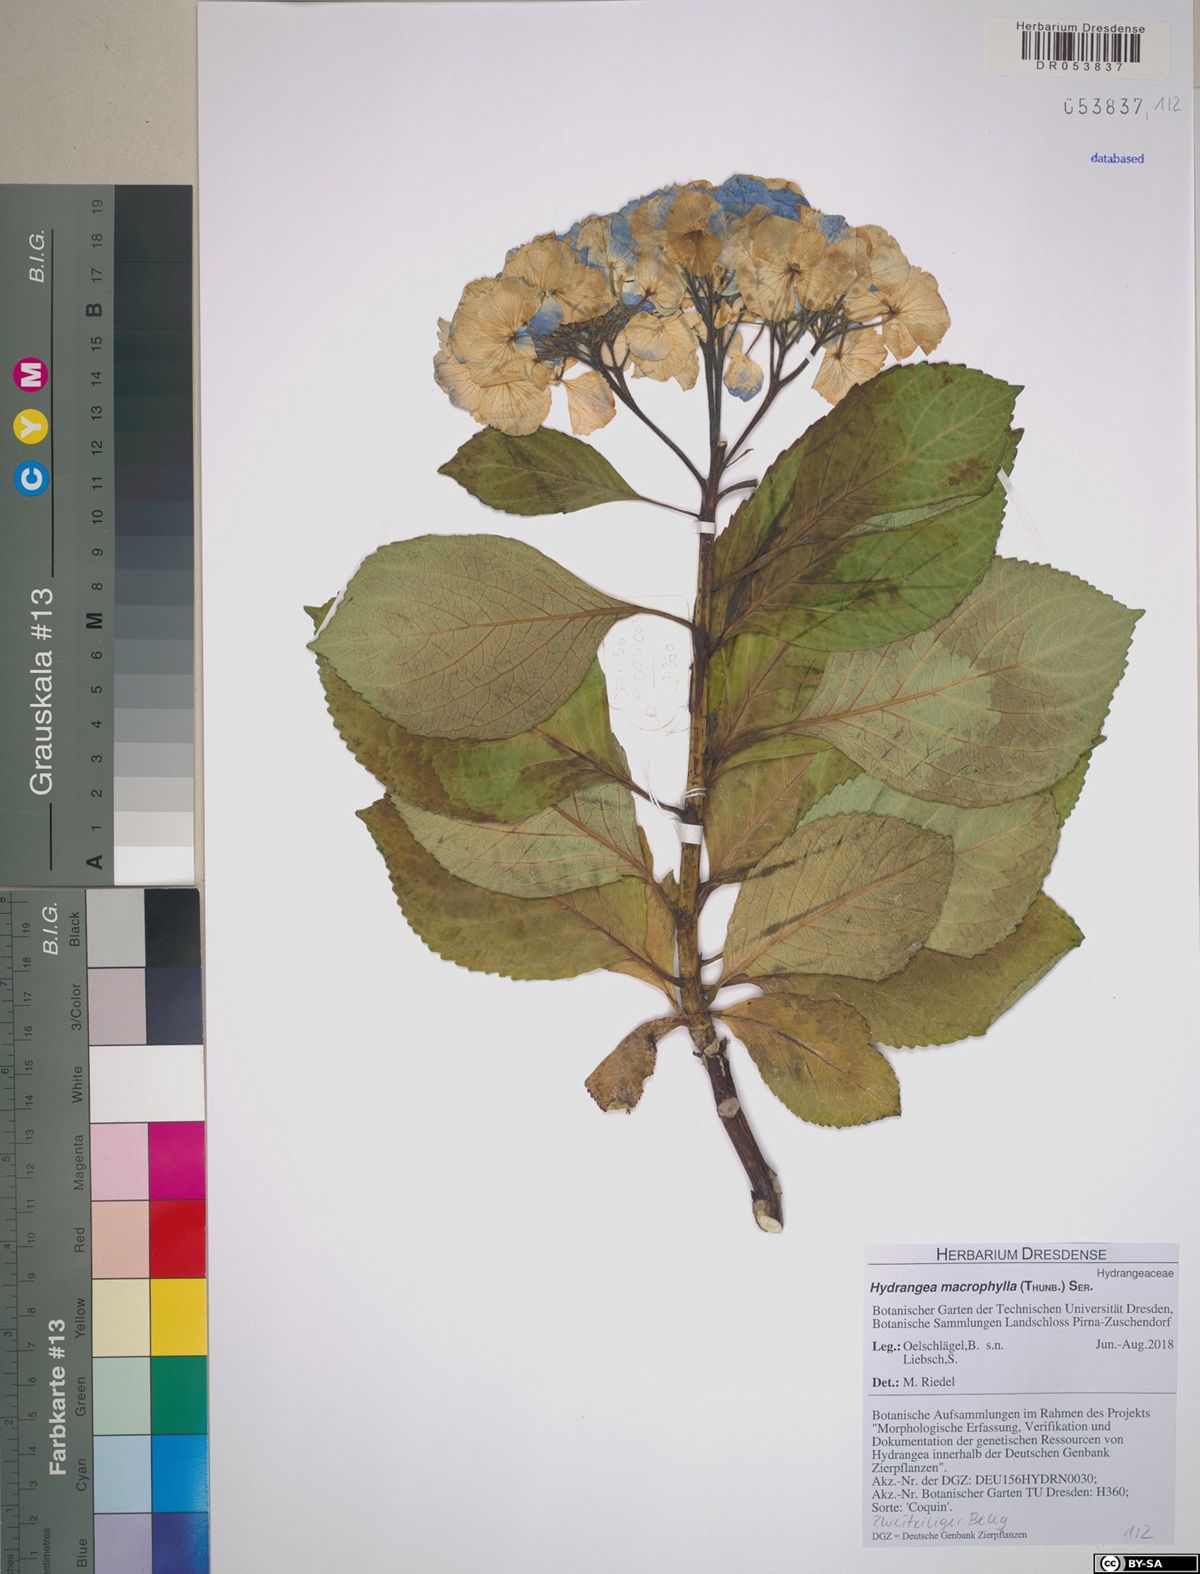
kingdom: Plantae
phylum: Tracheophyta
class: Magnoliopsida
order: Cornales
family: Hydrangeaceae
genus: Hydrangea
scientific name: Hydrangea macrophylla
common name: Hydrangea
